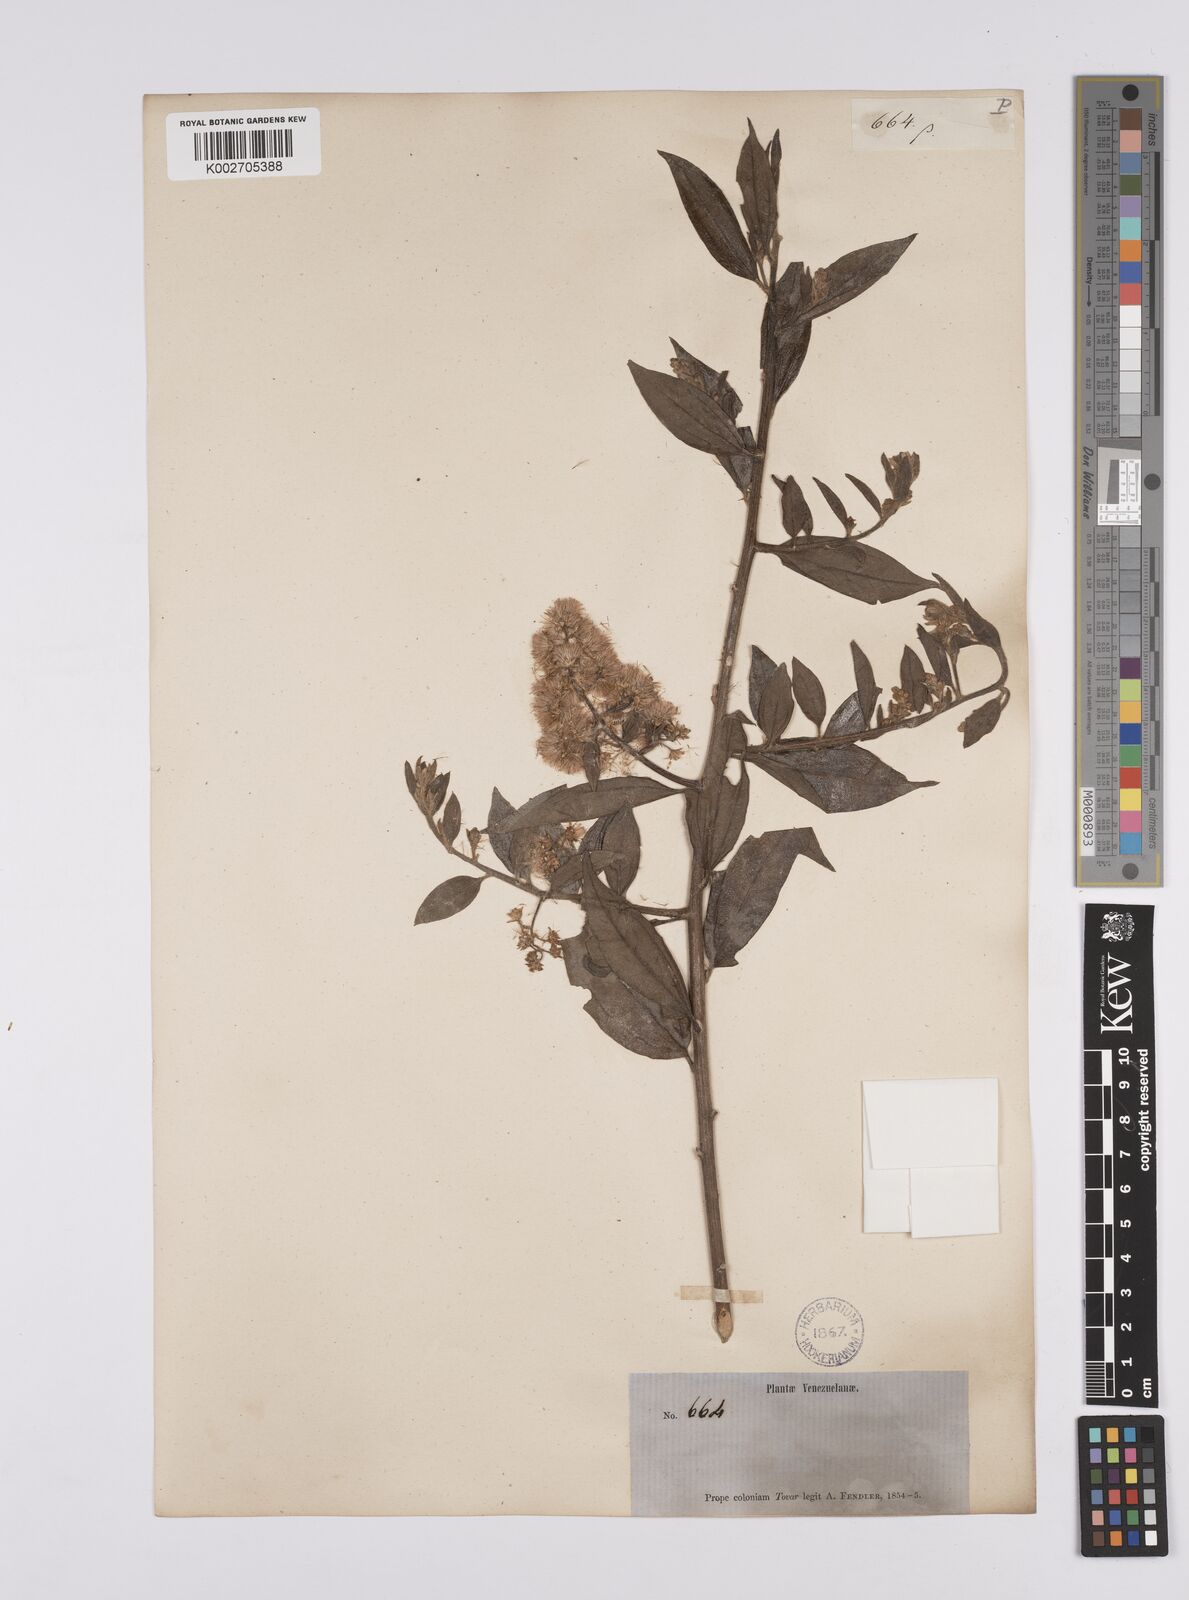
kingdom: Plantae
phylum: Tracheophyta
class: Magnoliopsida
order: Asterales
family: Asteraceae
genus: Baccharis
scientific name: Baccharis trinervis
